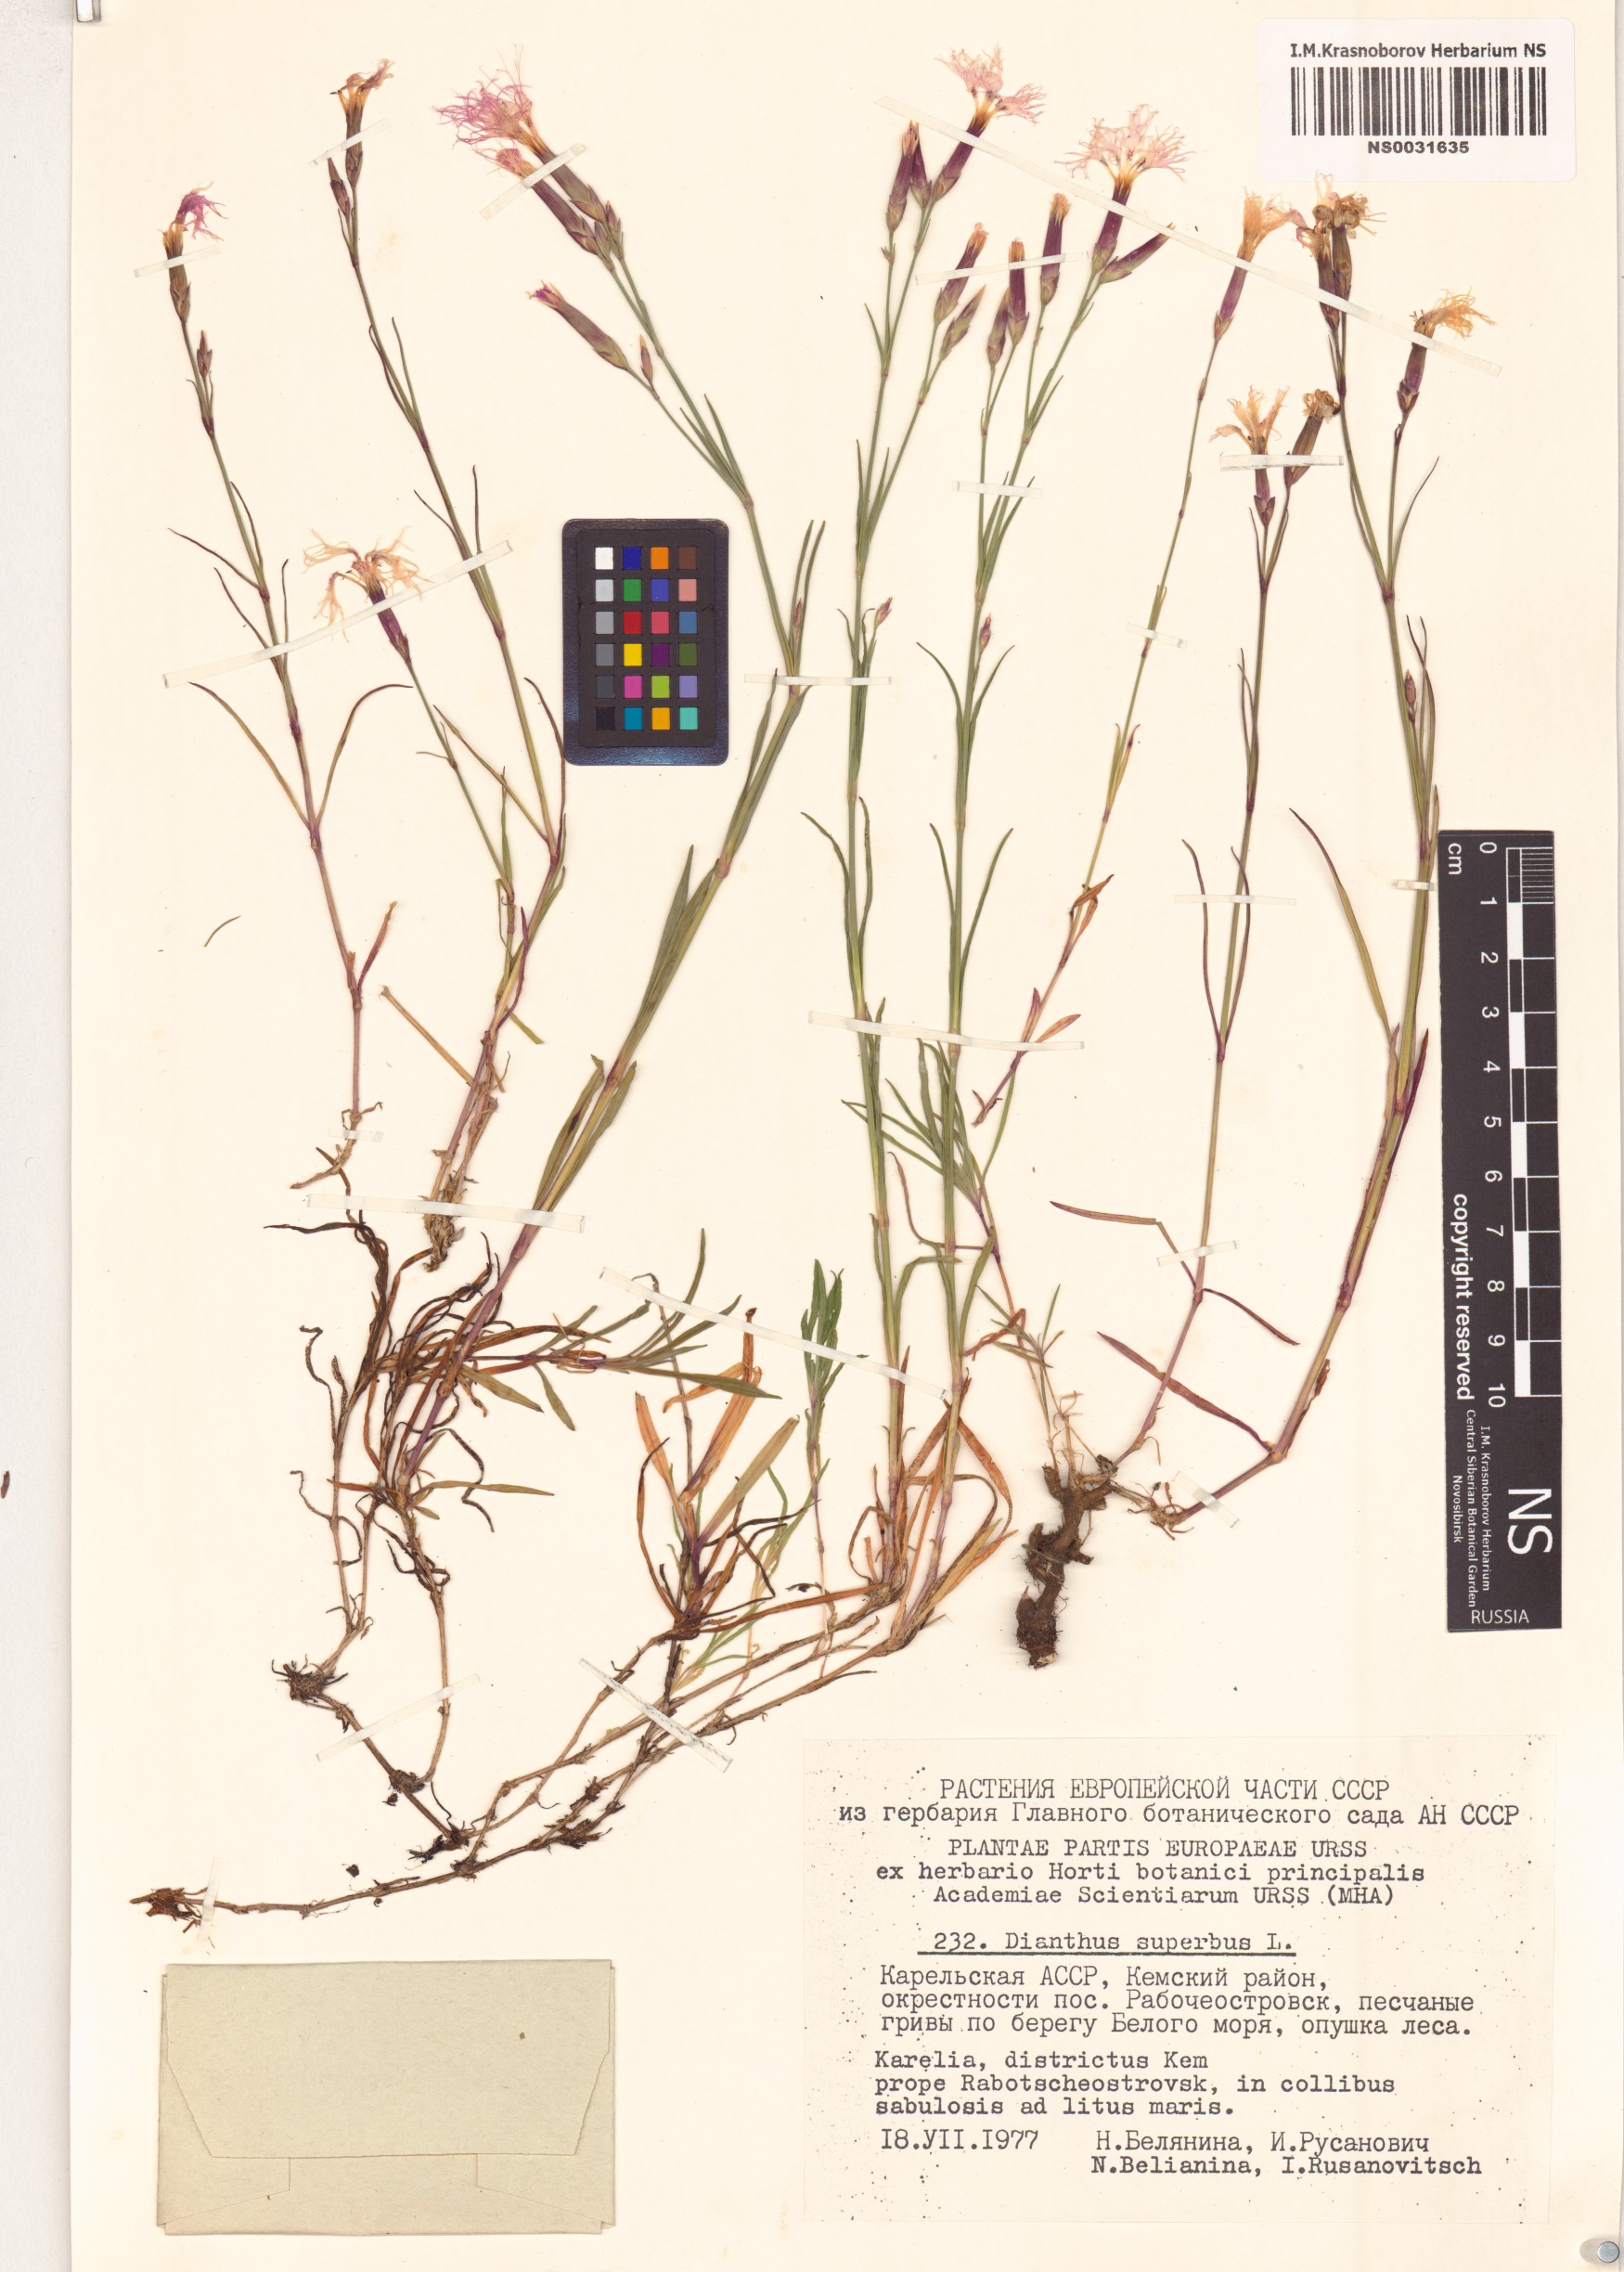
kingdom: Plantae
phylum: Tracheophyta
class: Magnoliopsida
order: Caryophyllales
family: Caryophyllaceae
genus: Dianthus
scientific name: Dianthus superbus
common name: Fringed pink
